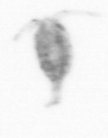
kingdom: Animalia
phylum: Arthropoda
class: Copepoda
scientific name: Copepoda
